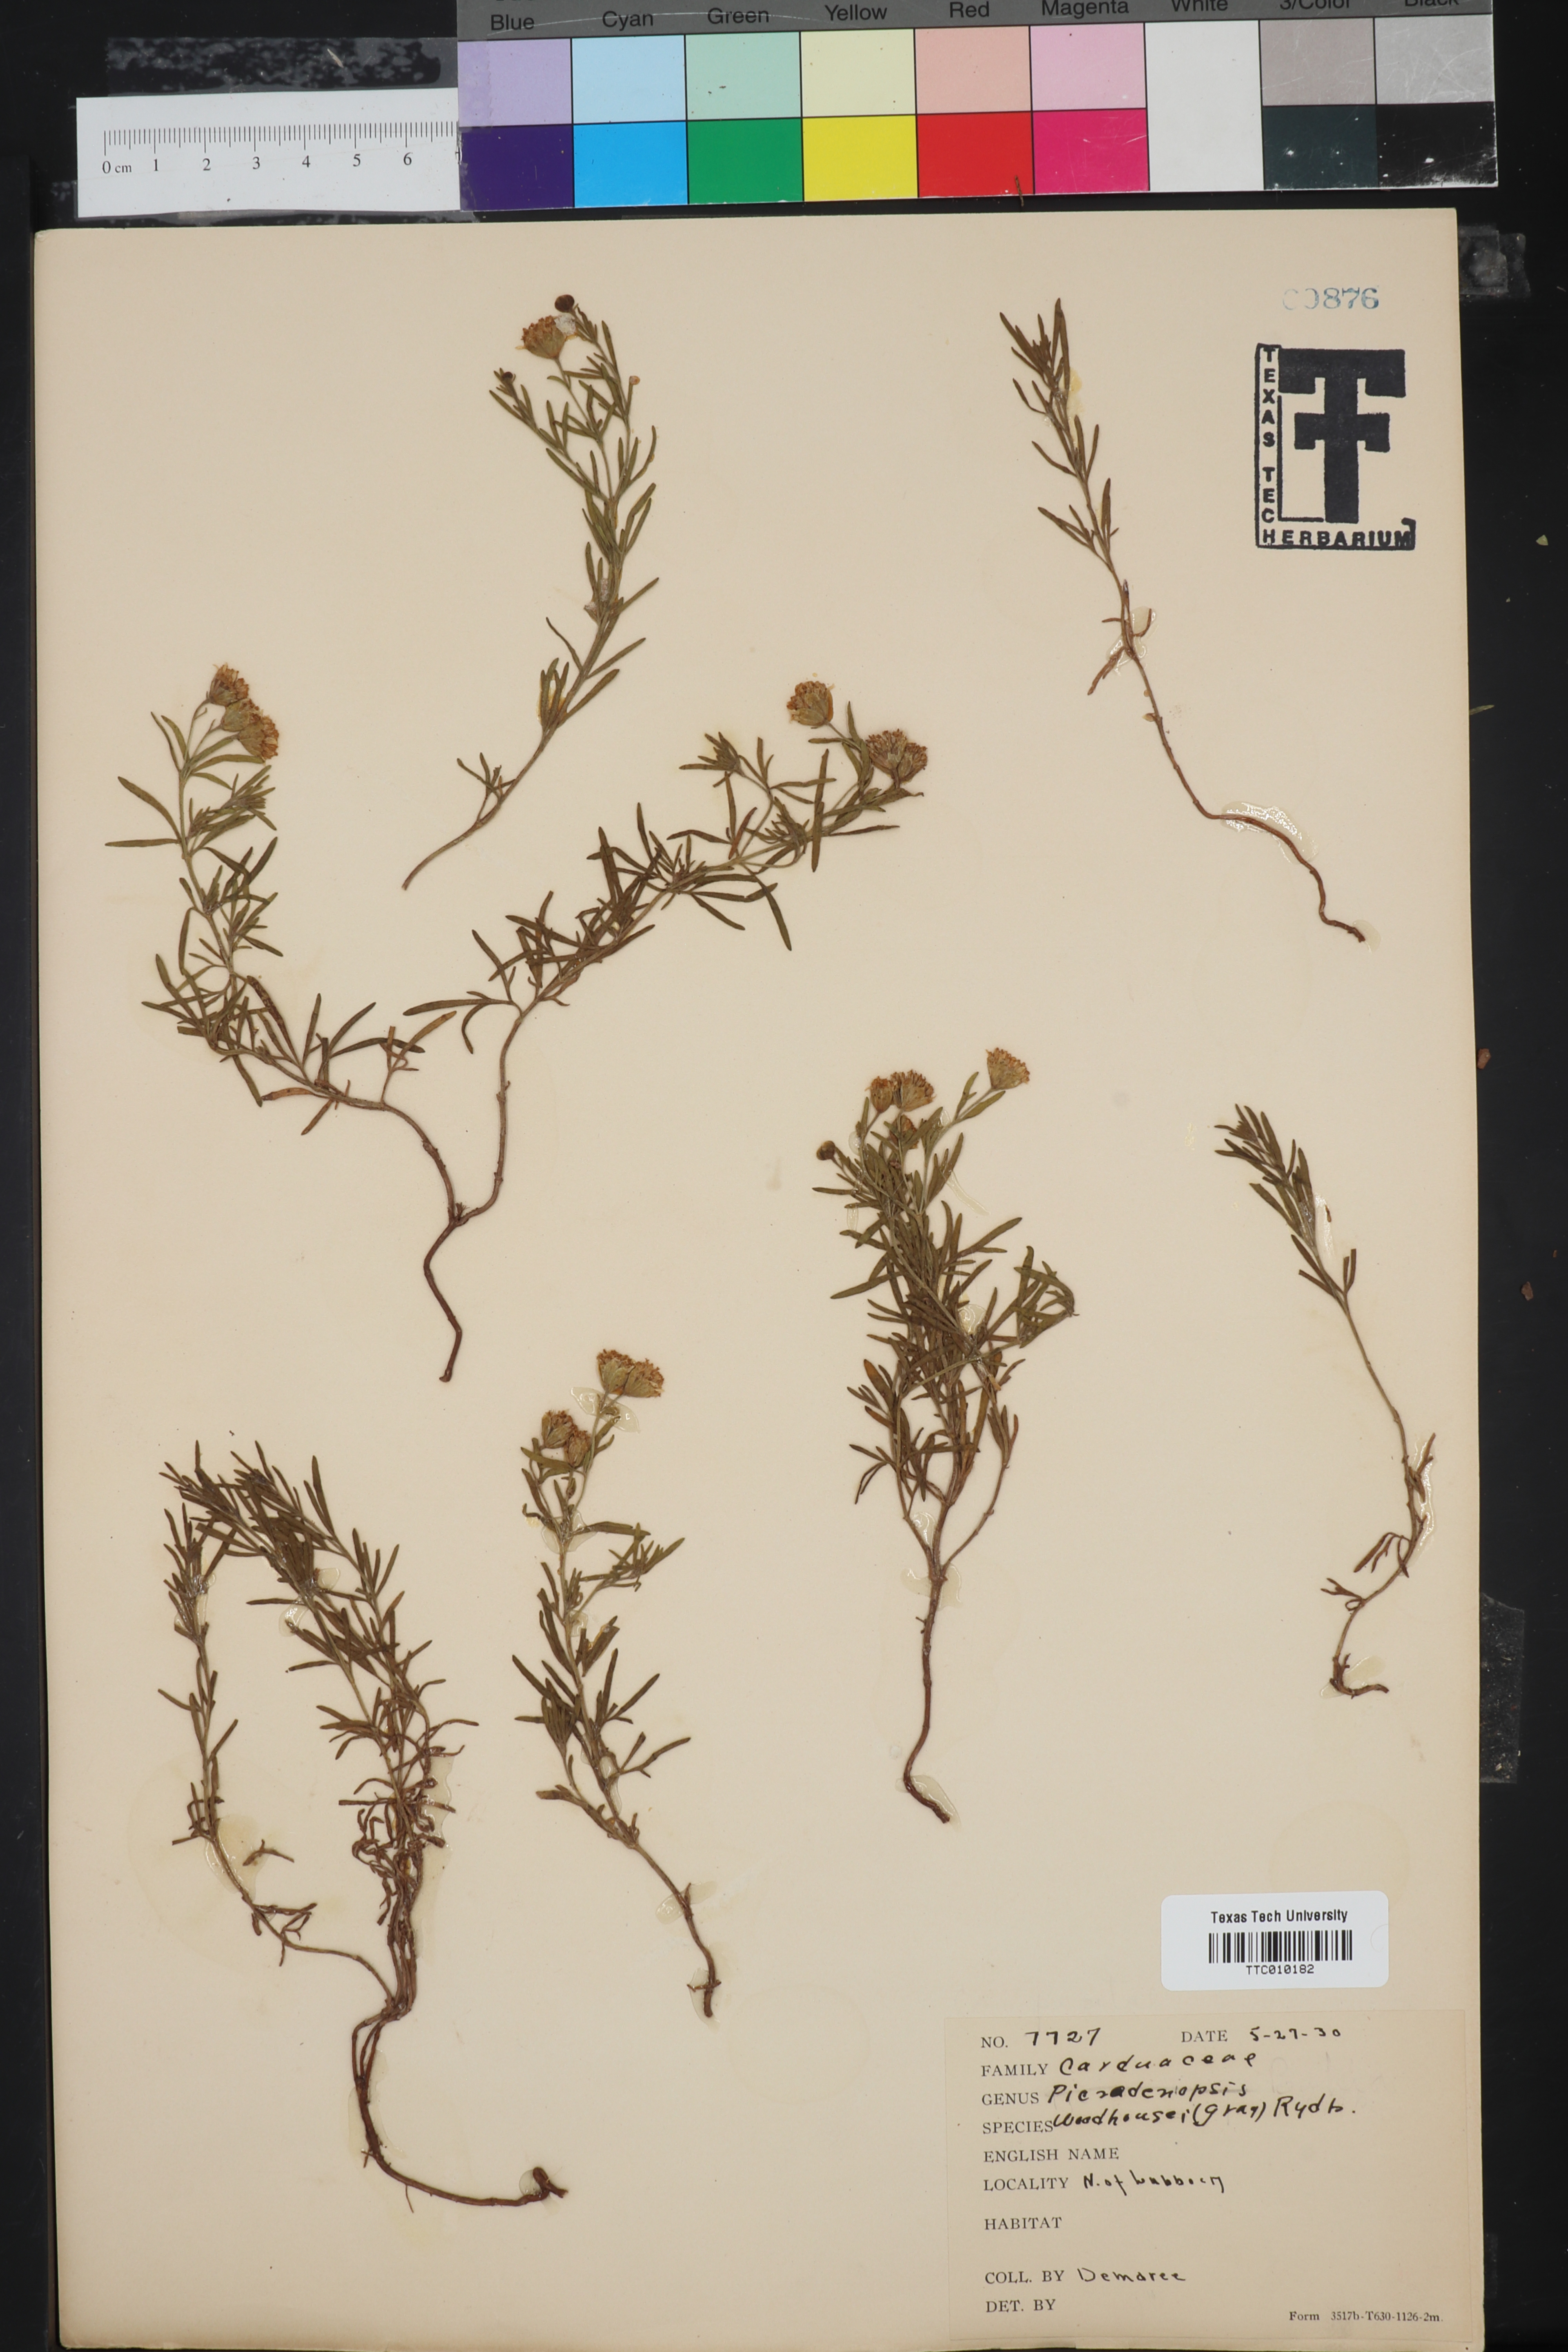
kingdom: Plantae
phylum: Tracheophyta
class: Magnoliopsida
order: Asterales
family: Asteraceae
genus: Picradeniopsis
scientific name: Picradeniopsis woodhousei
